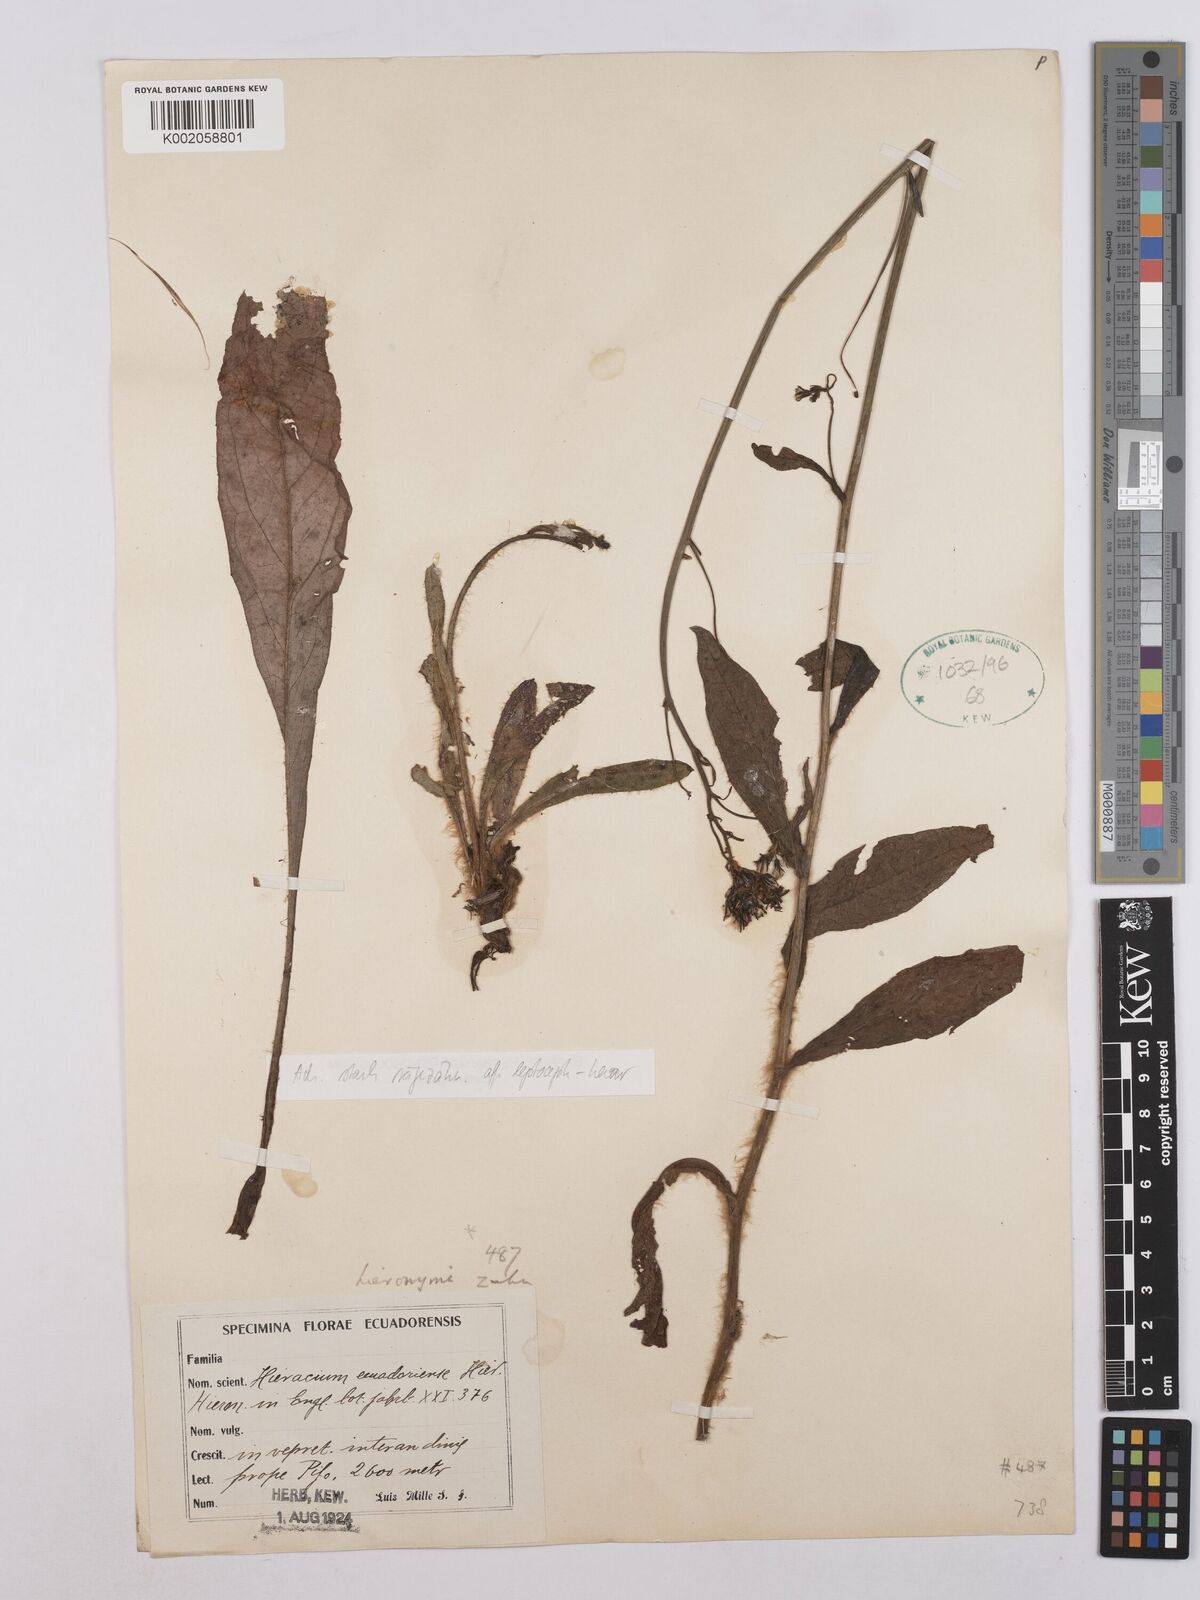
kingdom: Plantae
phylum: Tracheophyta
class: Magnoliopsida
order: Asterales
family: Asteraceae
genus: Hieracium
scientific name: Hieracium ecuadorense
